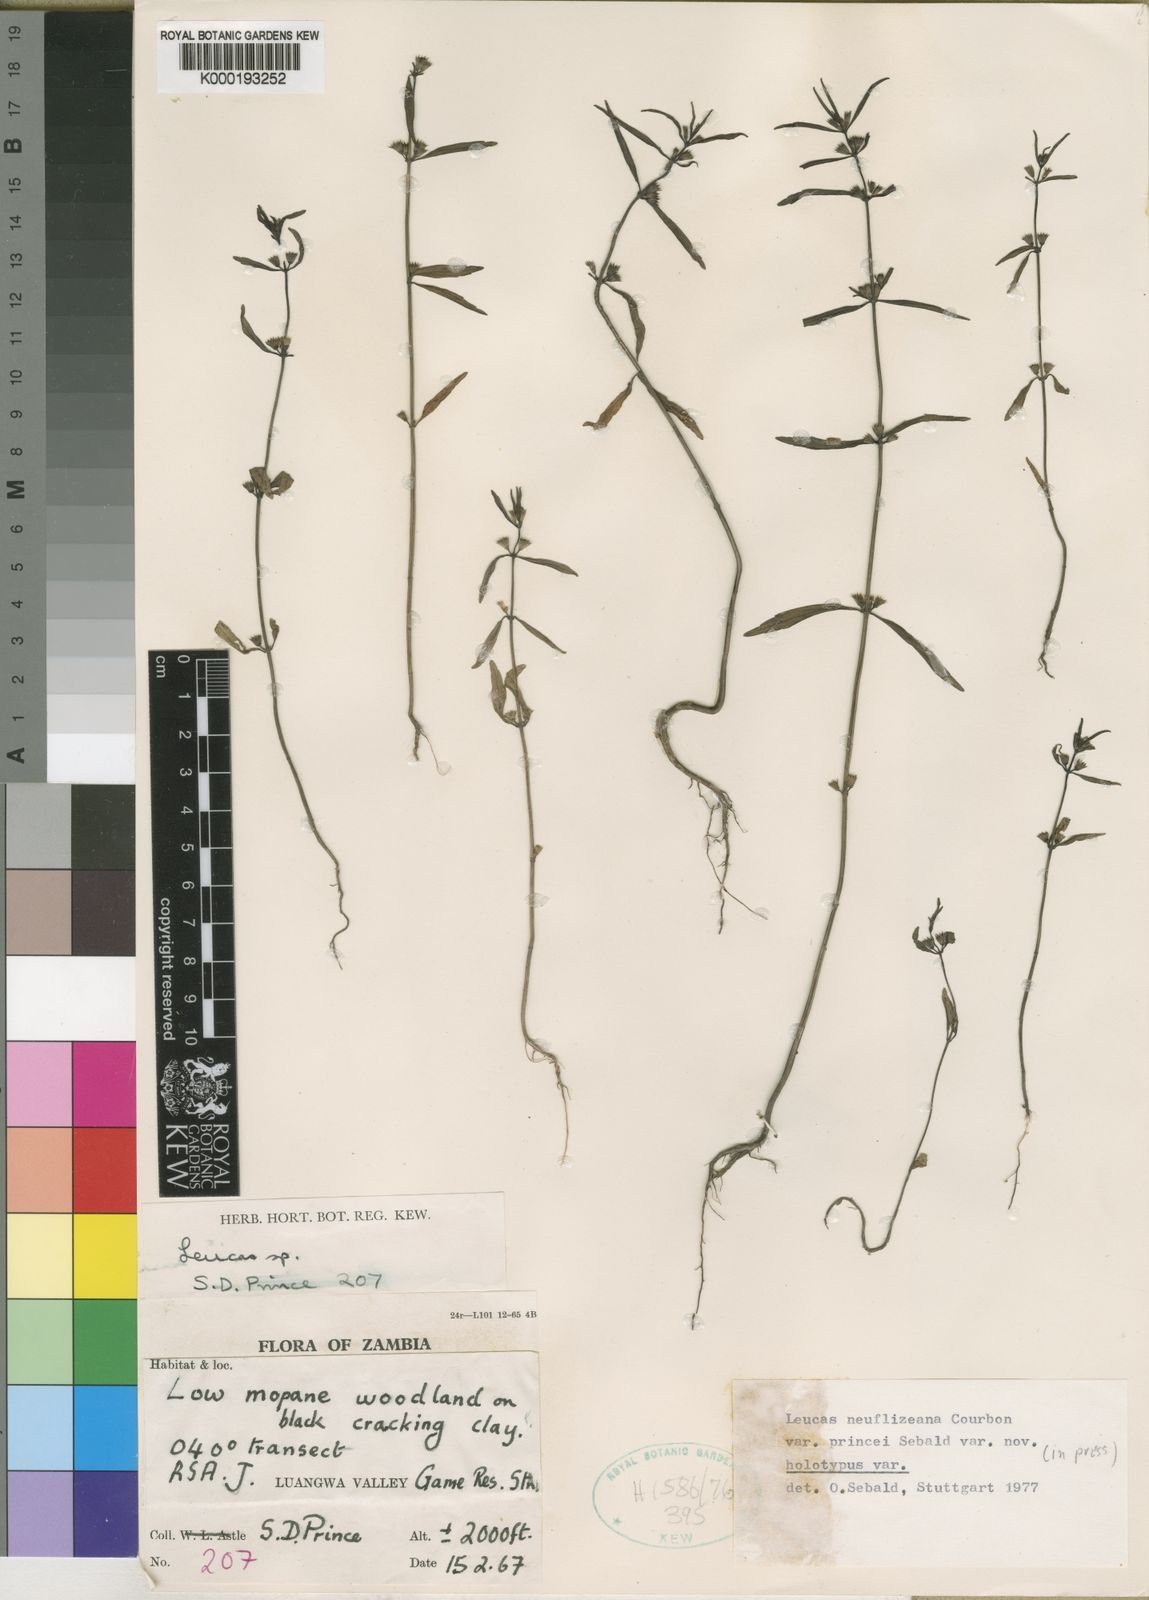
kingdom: Plantae
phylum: Tracheophyta
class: Magnoliopsida
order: Lamiales
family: Lamiaceae
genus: Leucas
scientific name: Leucas princei
